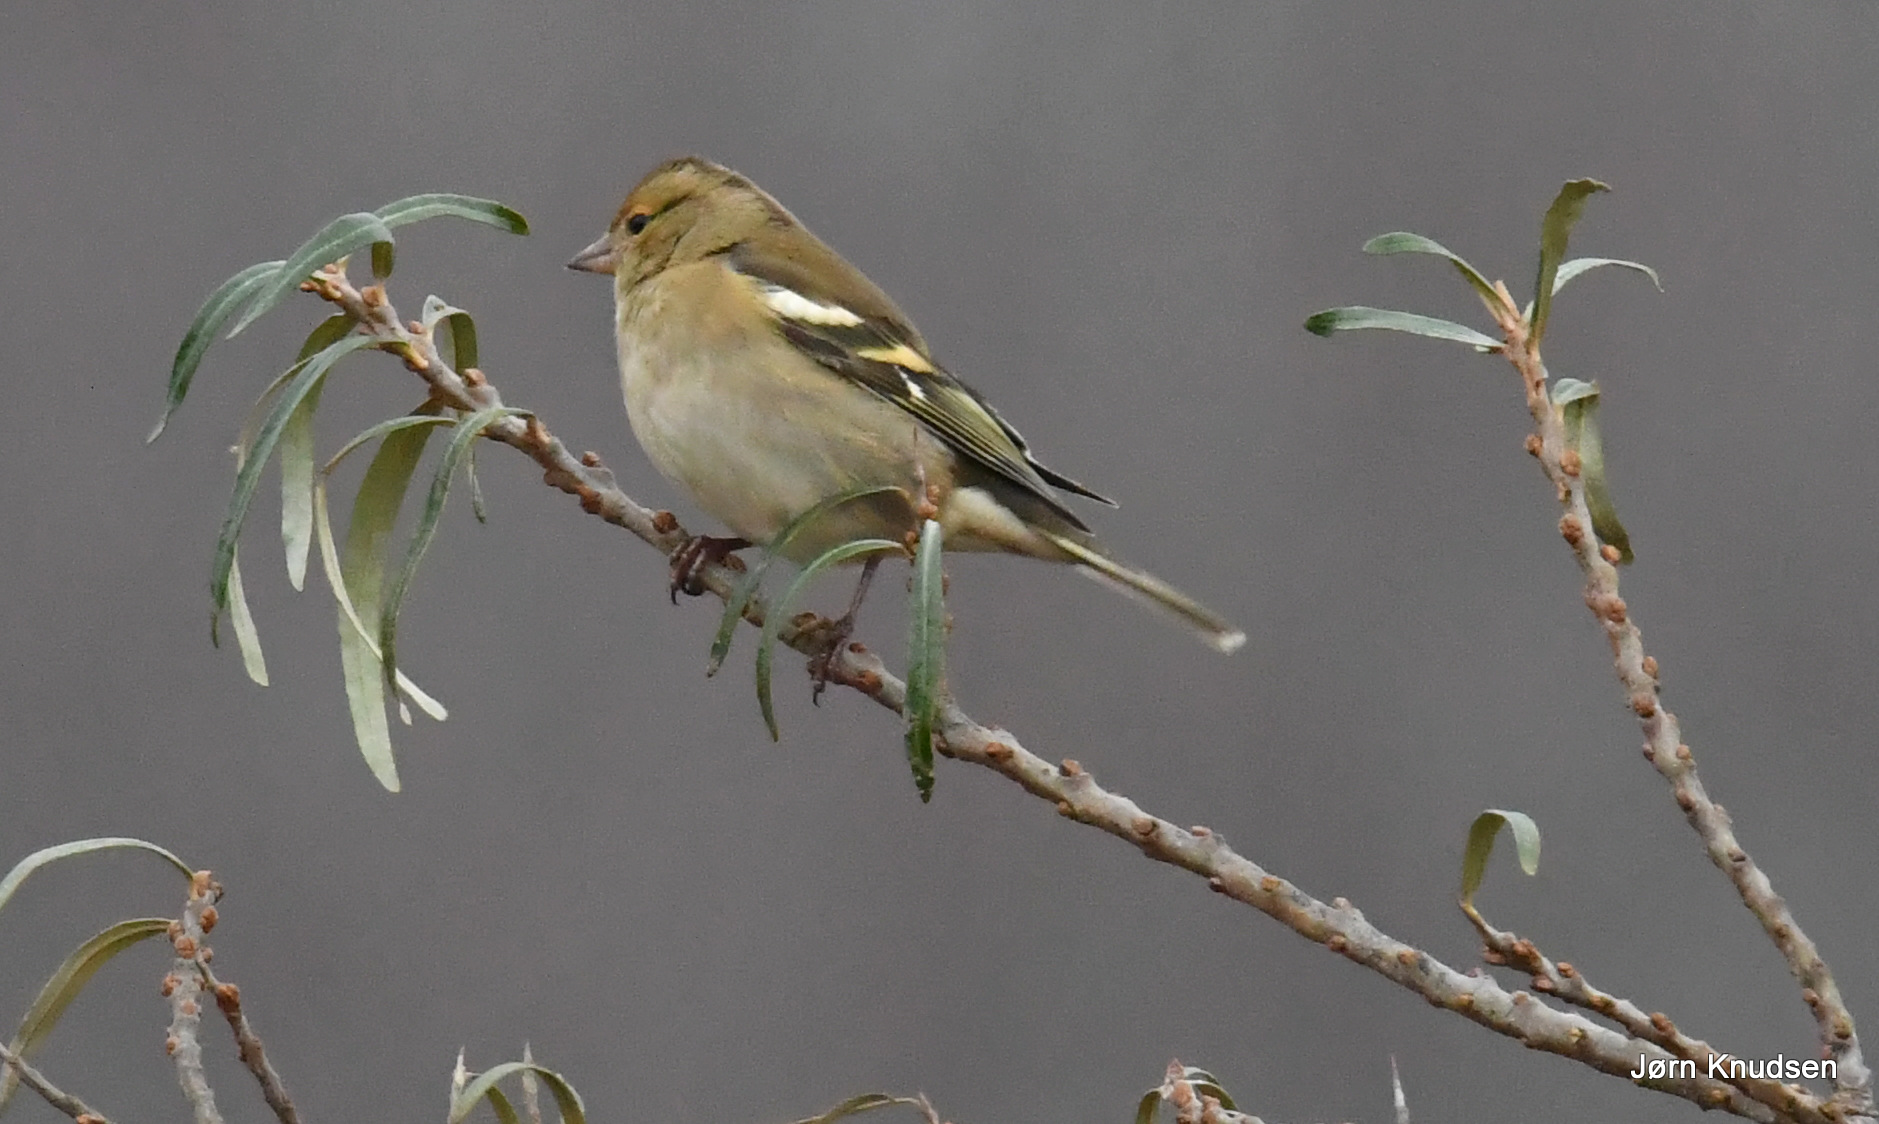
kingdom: Animalia
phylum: Chordata
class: Aves
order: Passeriformes
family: Fringillidae
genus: Fringilla
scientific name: Fringilla coelebs
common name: Bogfinke
